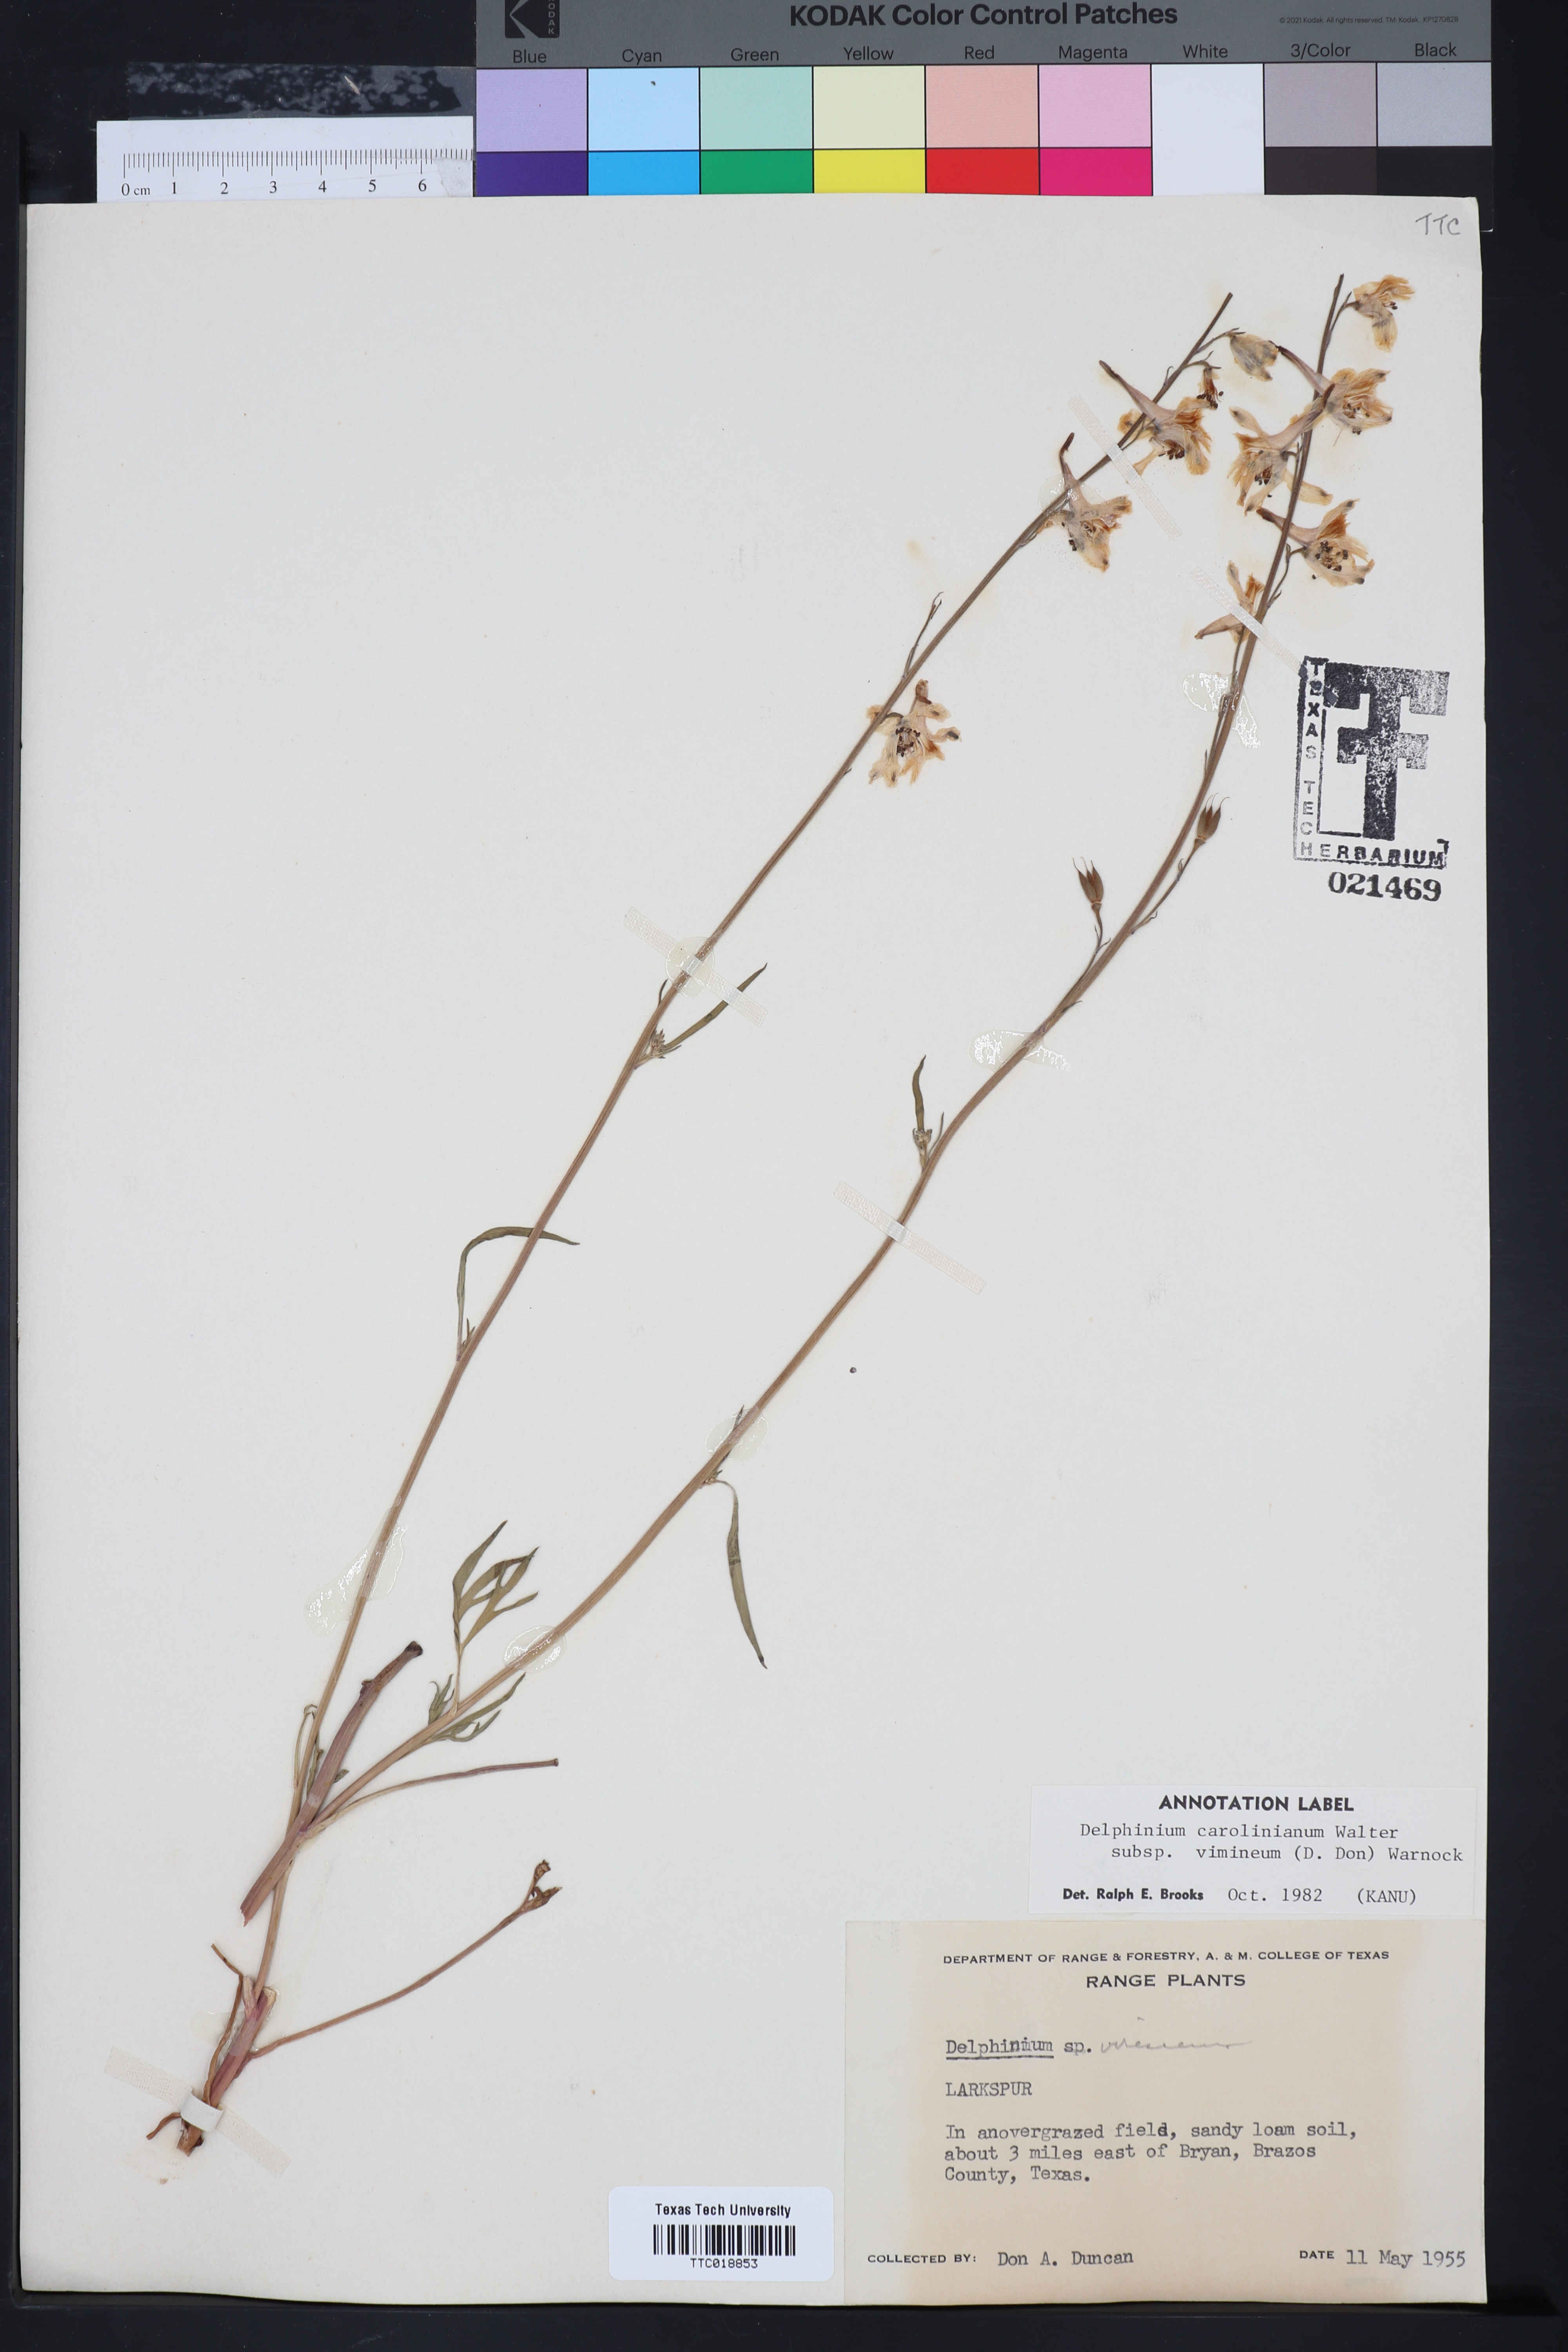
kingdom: Plantae
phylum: Tracheophyta
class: Magnoliopsida
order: Ranunculales
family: Ranunculaceae
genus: Delphinium
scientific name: Delphinium carolinianum
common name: Carolina larkspur
